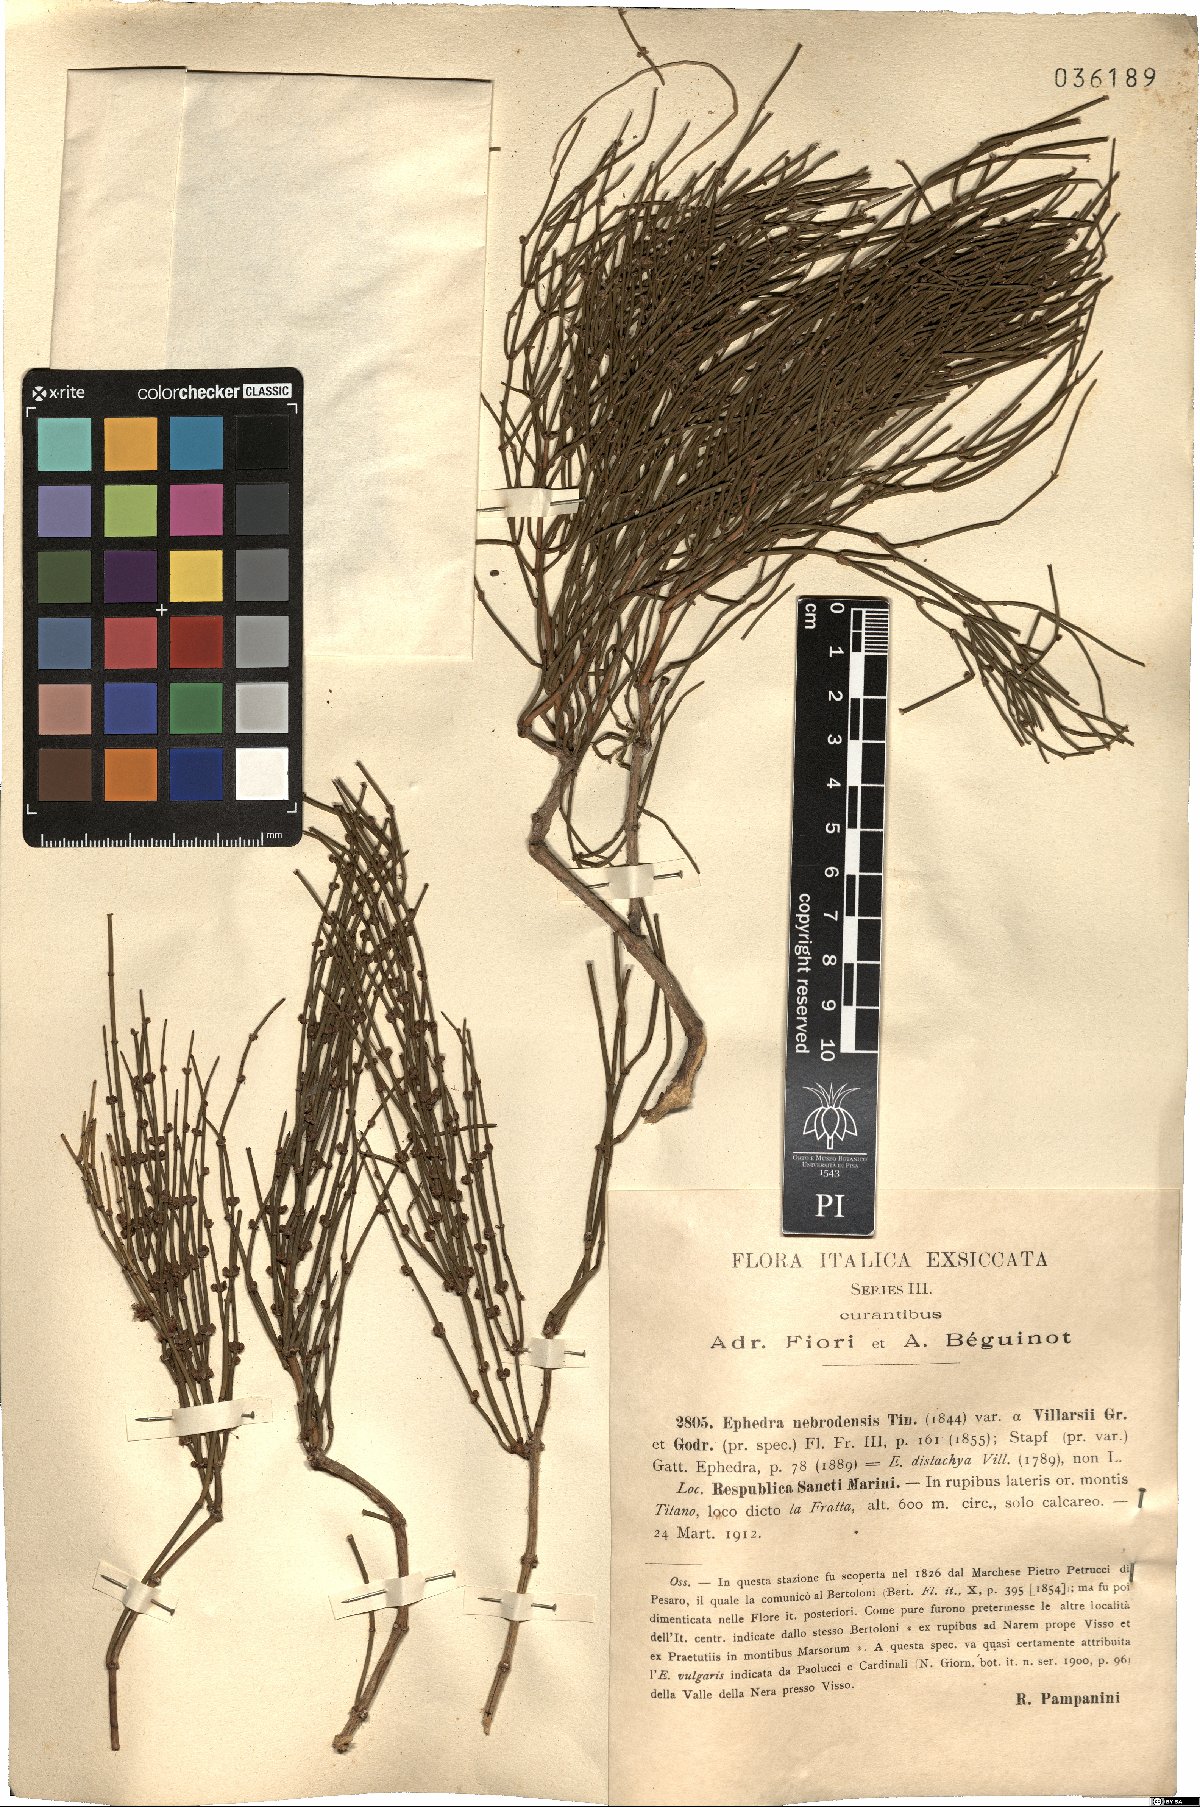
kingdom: Plantae
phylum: Tracheophyta
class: Gnetopsida
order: Ephedrales
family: Ephedraceae
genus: Ephedra
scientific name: Ephedra foeminea
